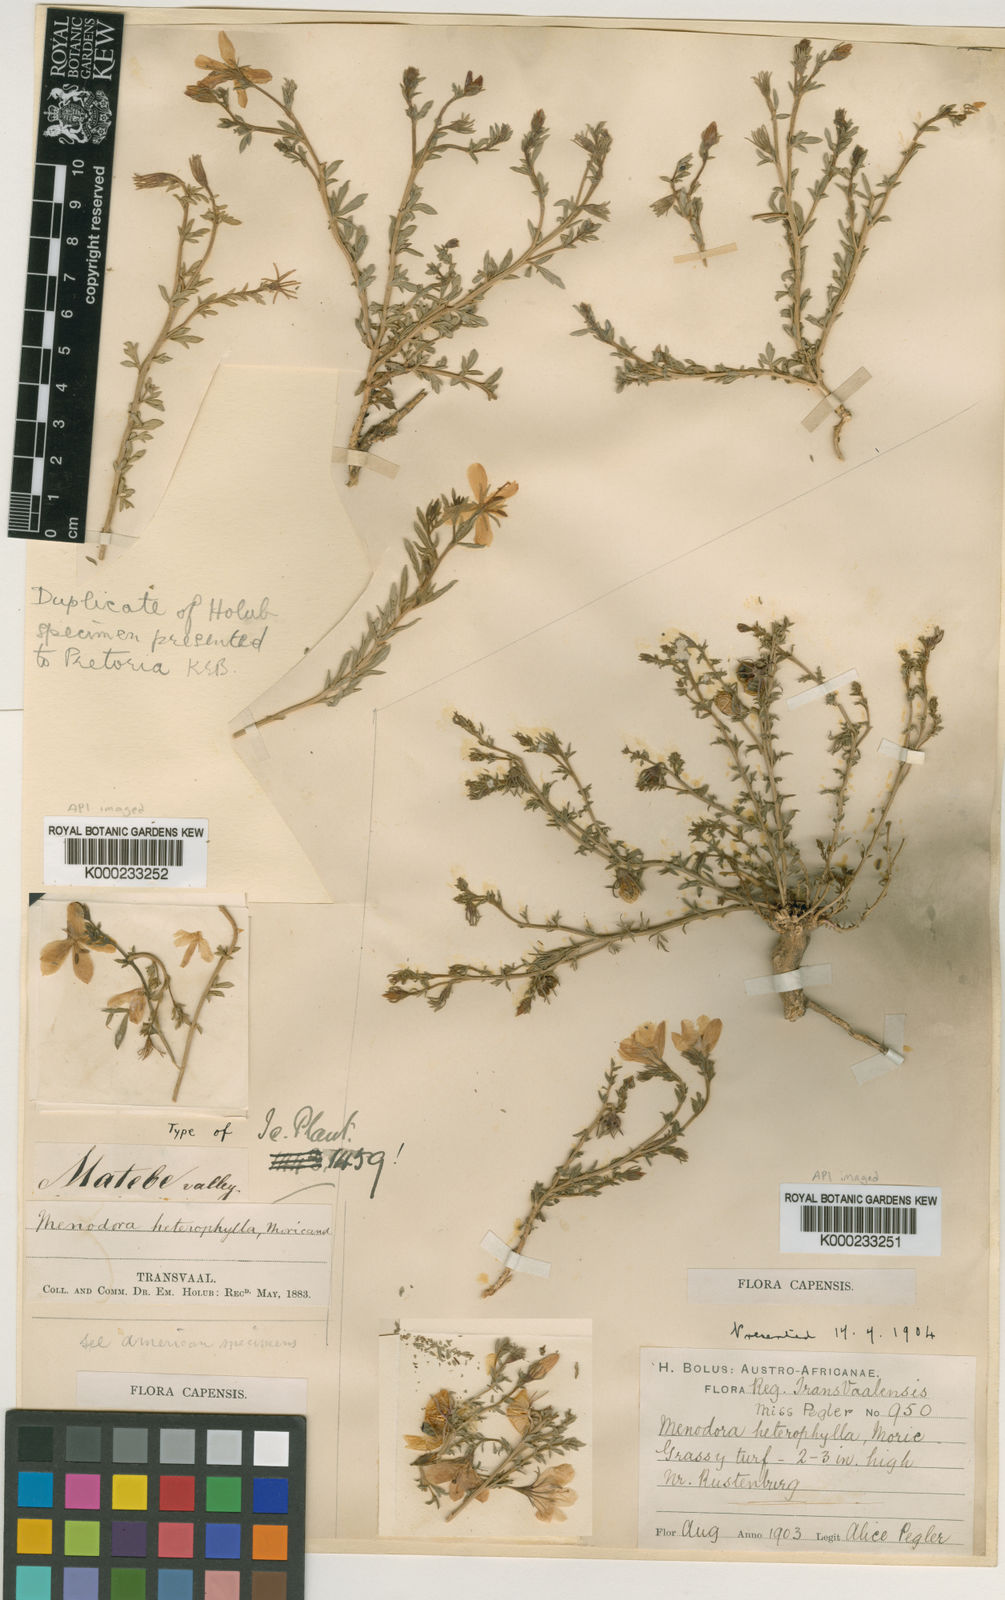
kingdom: Plantae
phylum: Tracheophyta
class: Magnoliopsida
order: Lamiales
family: Oleaceae
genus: Menodora
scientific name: Menodora heterophylla
